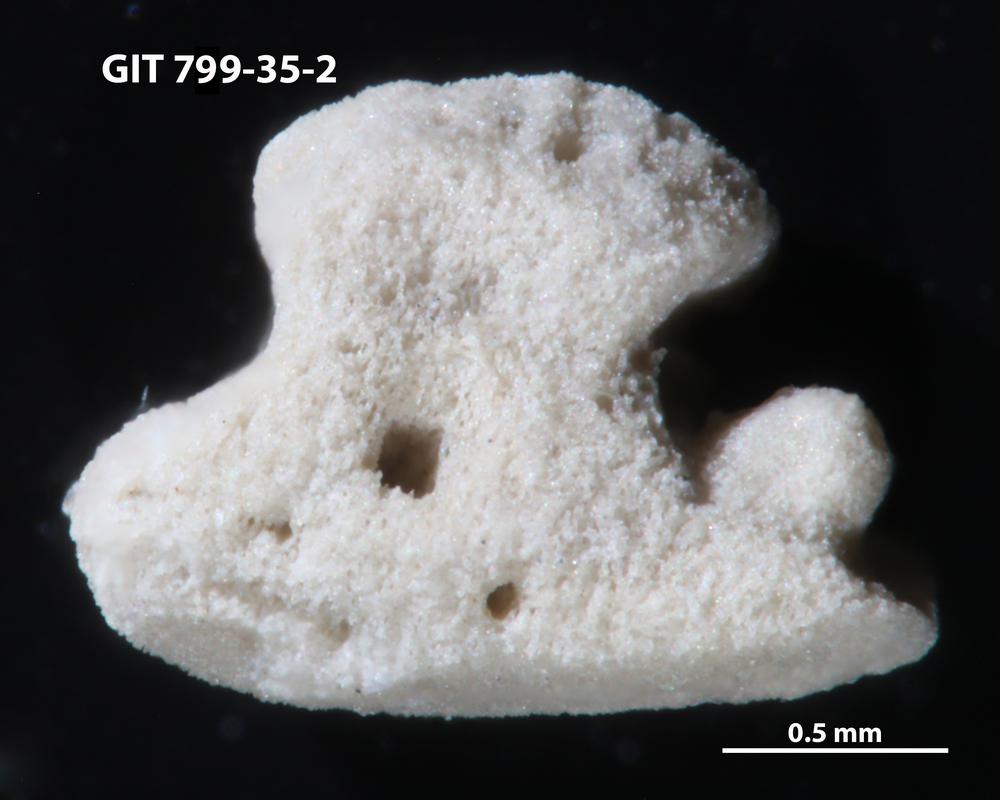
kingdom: Animalia
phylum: Echinodermata
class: Crinoidea
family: Cyclocystoididae
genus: Polytryphocycloides
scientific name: Polytryphocycloides
